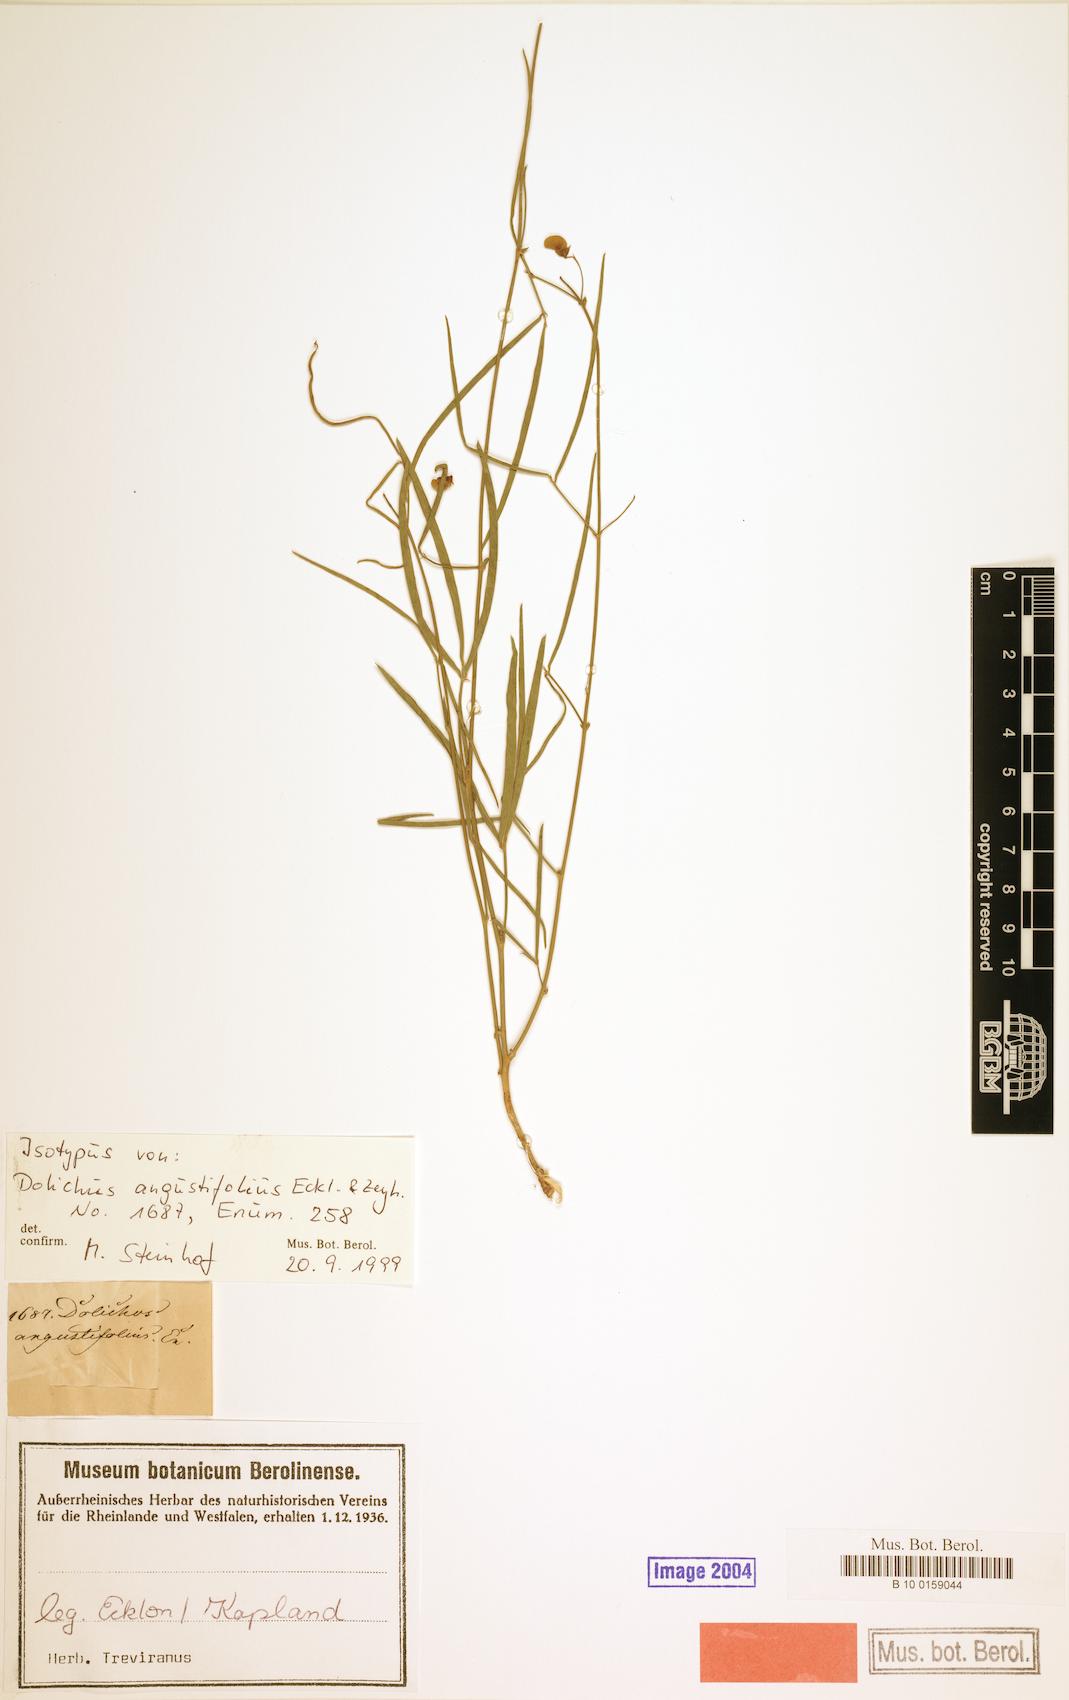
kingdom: Plantae
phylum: Tracheophyta
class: Magnoliopsida
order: Fabales
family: Fabaceae
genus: Dolichos
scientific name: Dolichos angustifolius
